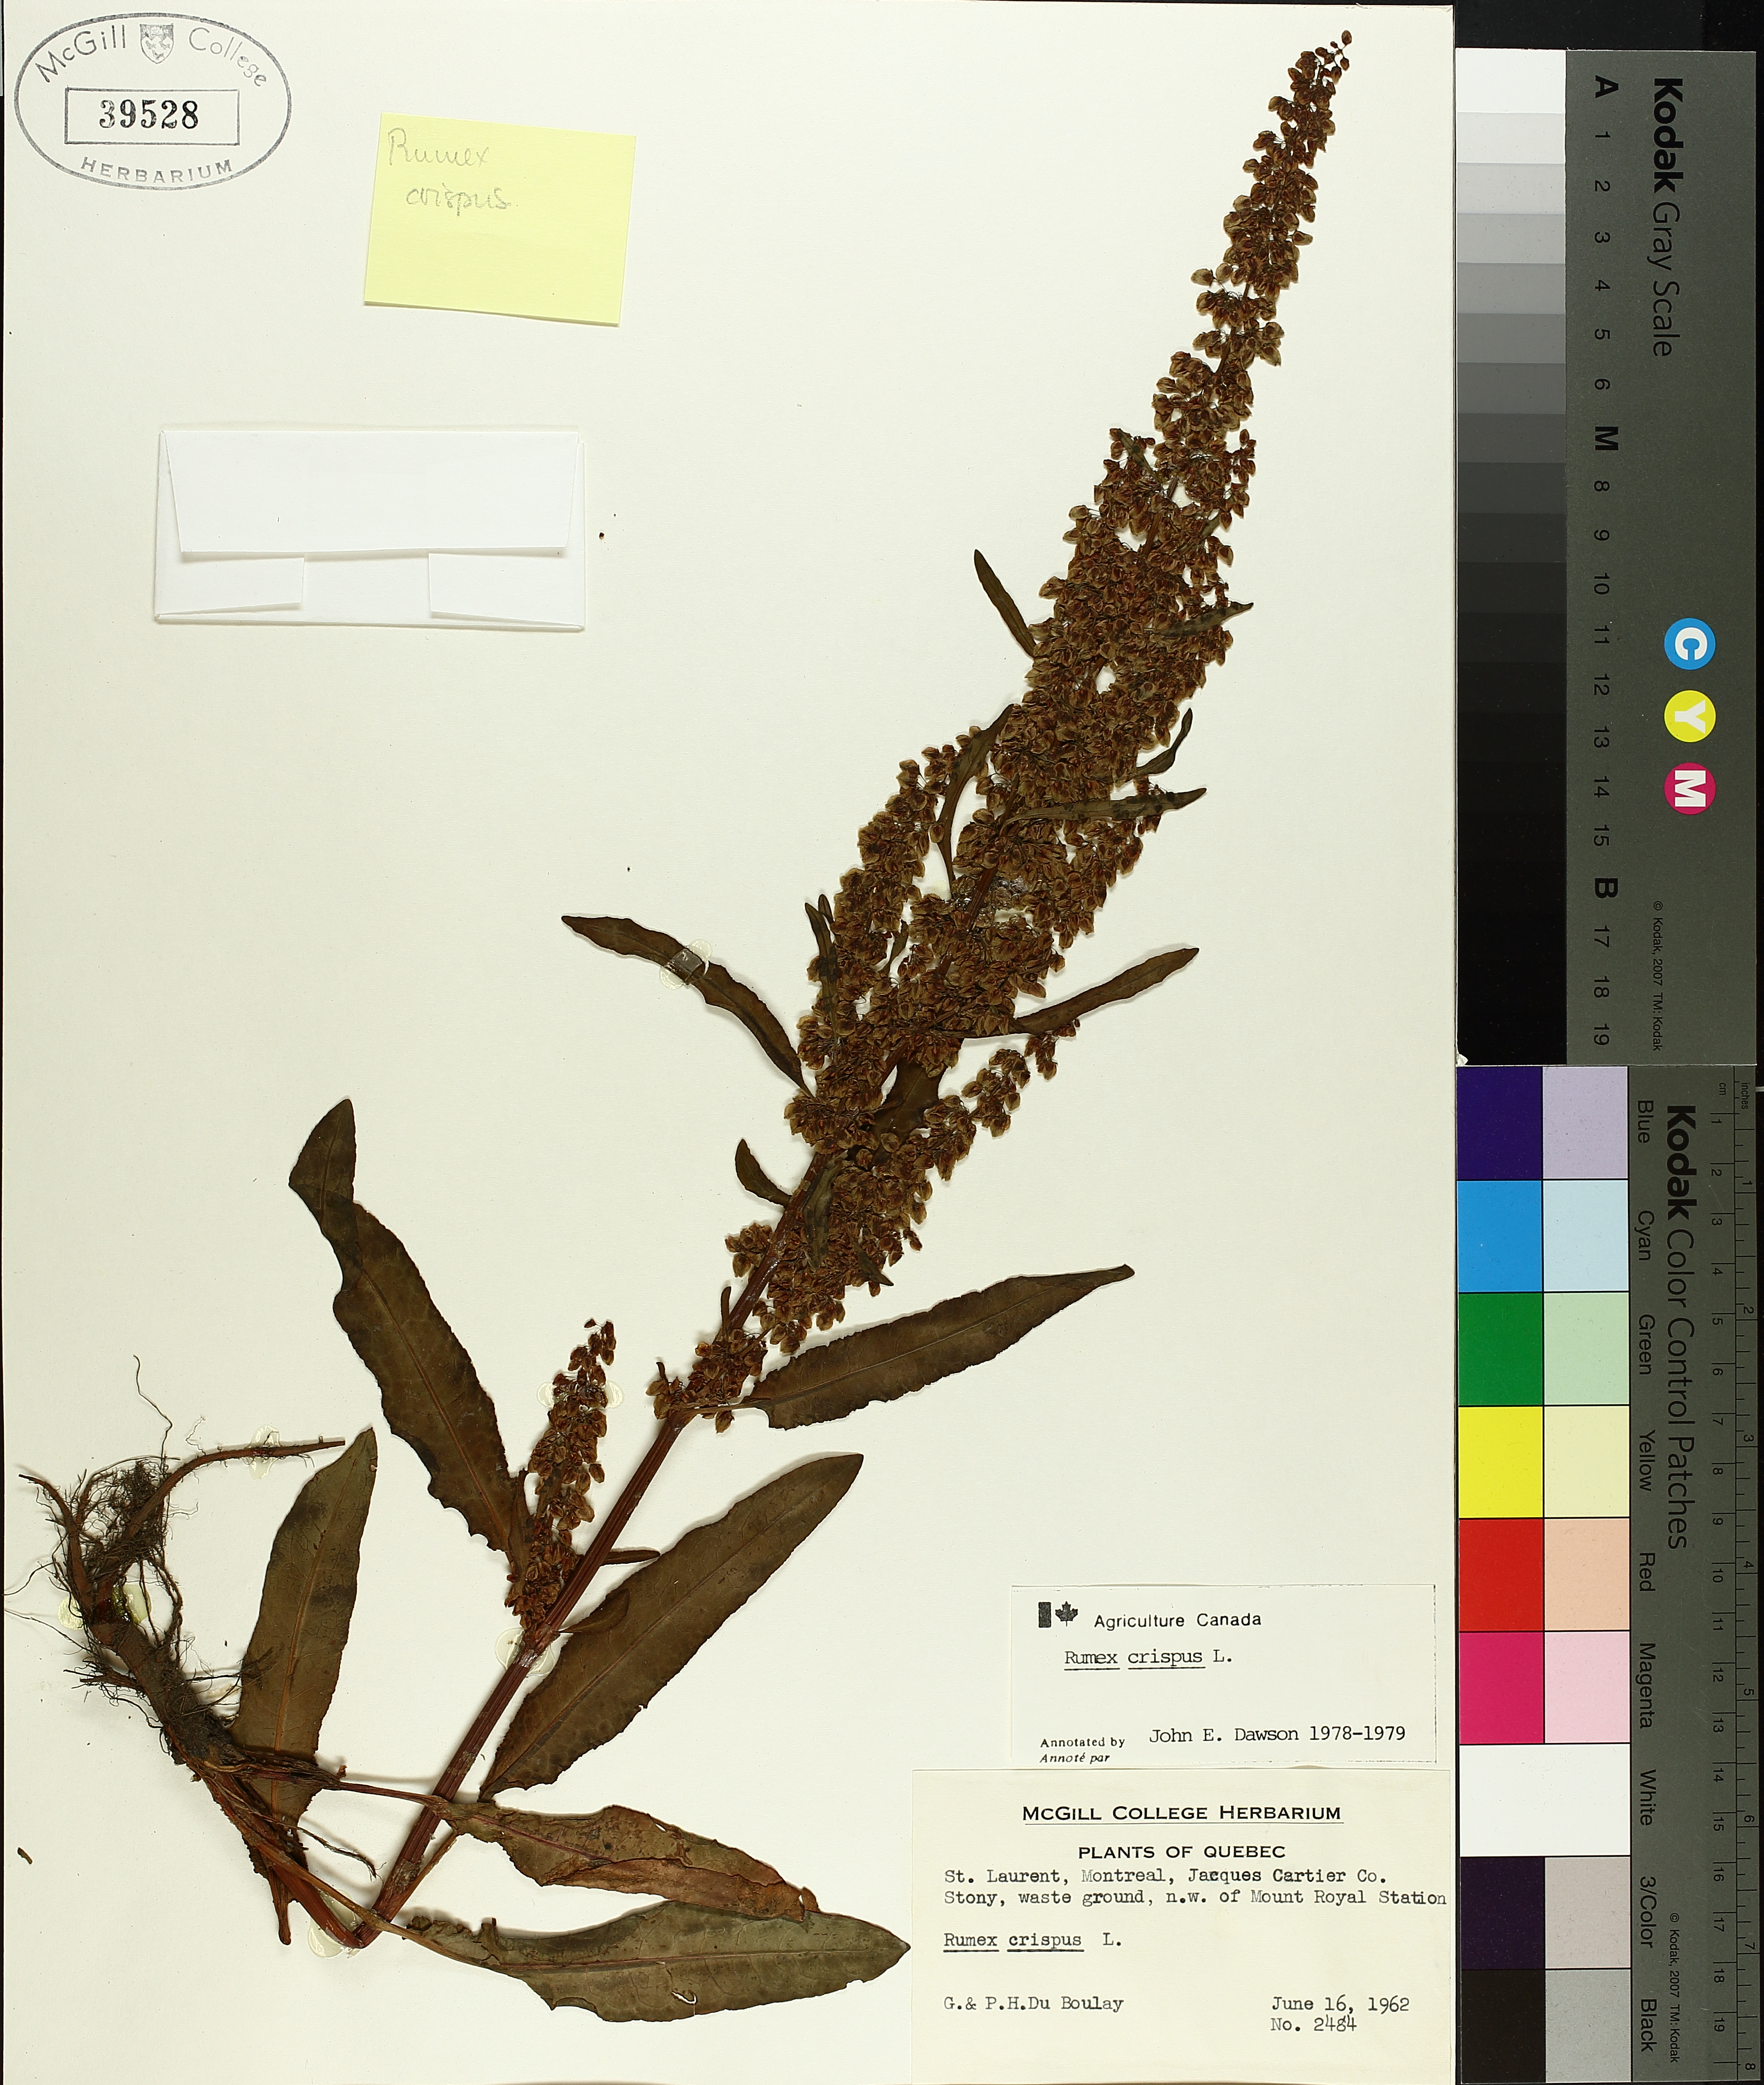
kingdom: Plantae
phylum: Tracheophyta
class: Magnoliopsida
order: Caryophyllales
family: Polygonaceae
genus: Rumex
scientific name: Rumex crispus
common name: Curled dock
